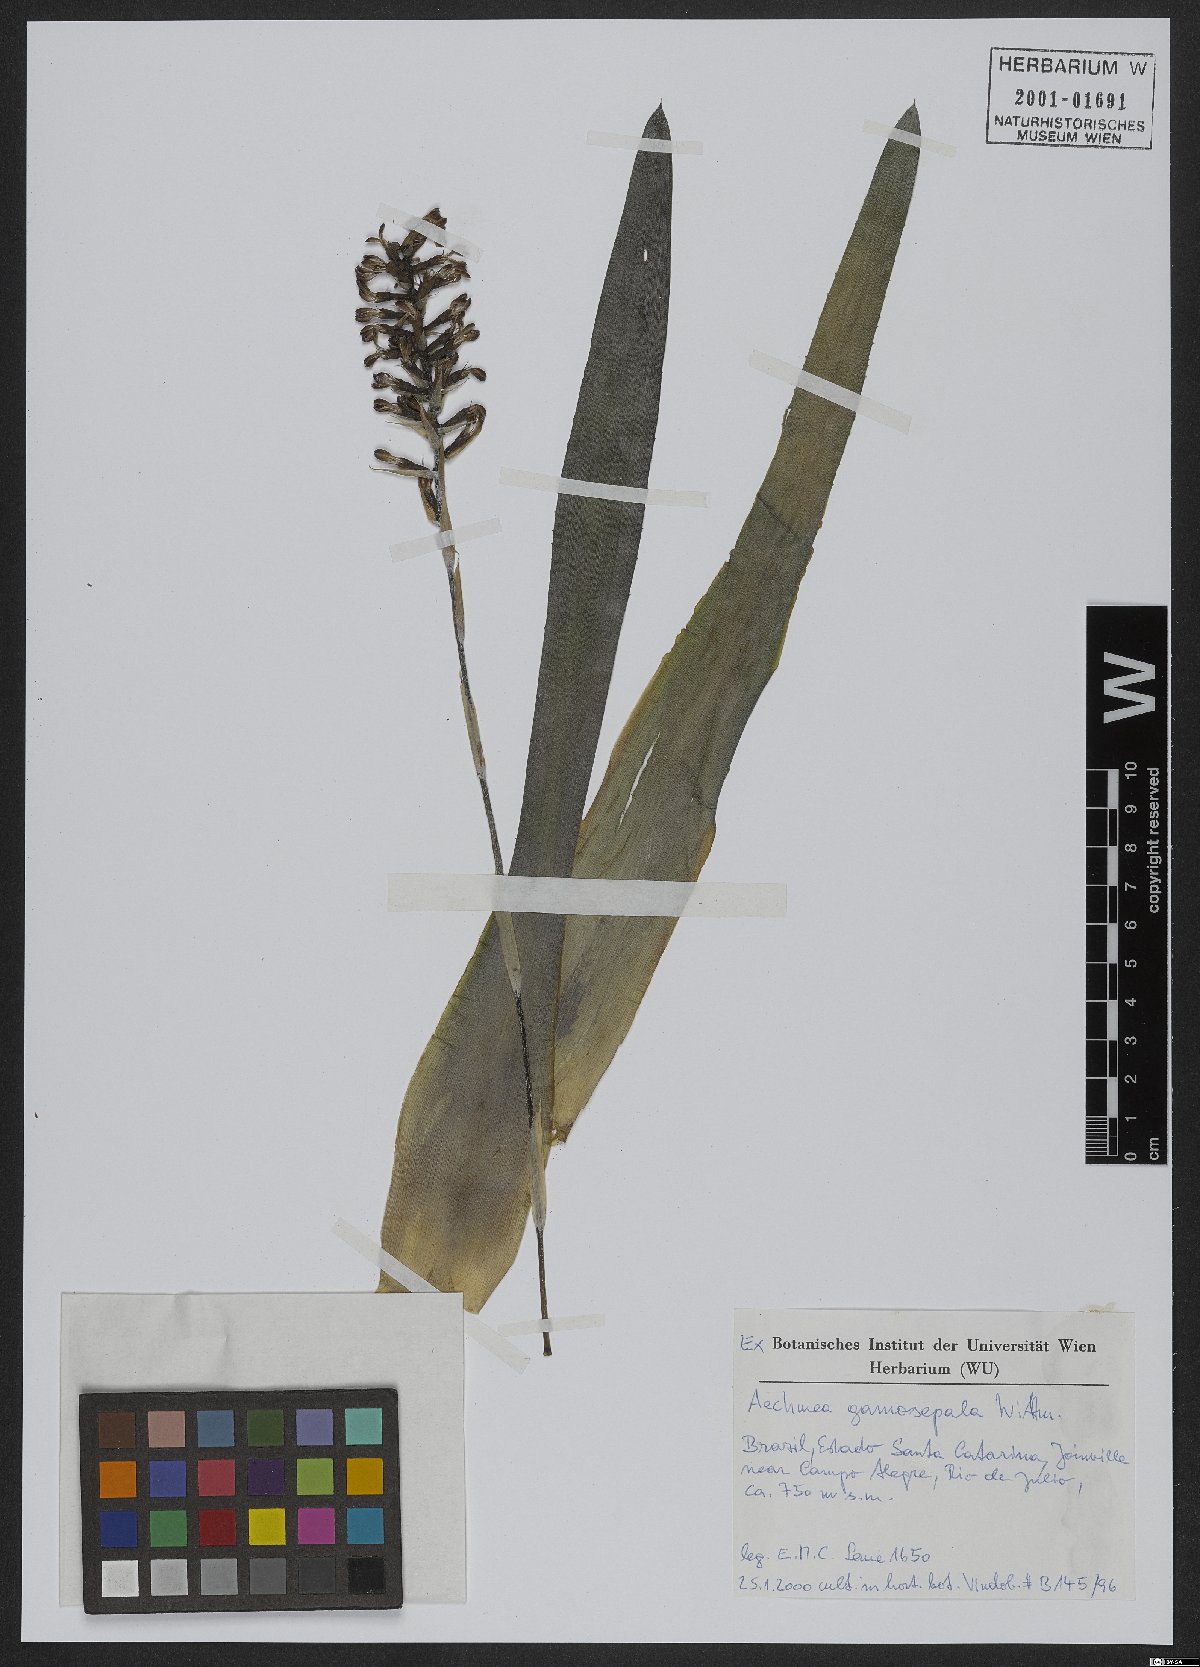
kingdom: Plantae
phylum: Tracheophyta
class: Liliopsida
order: Poales
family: Bromeliaceae
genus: Aechmea
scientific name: Aechmea gamosepala
